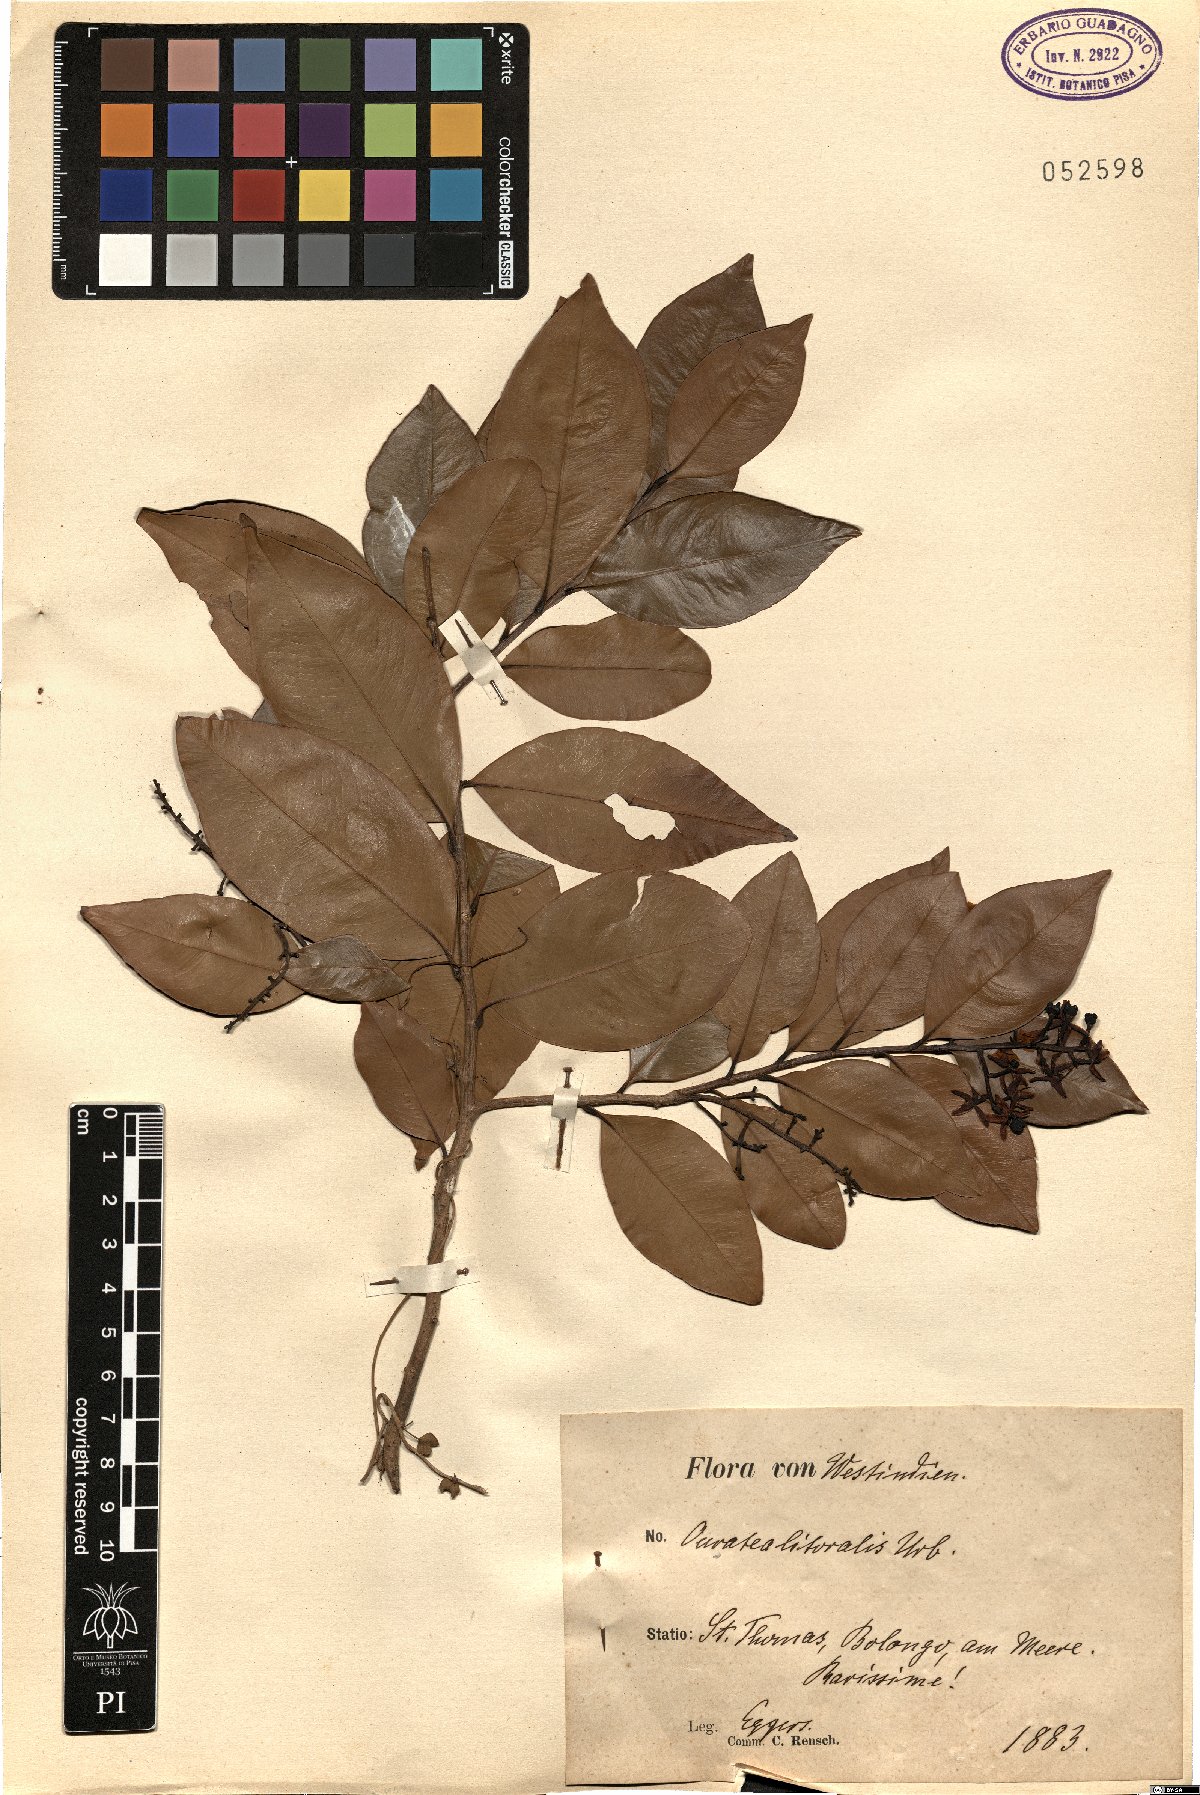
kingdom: Plantae
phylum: Tracheophyta
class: Magnoliopsida
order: Malpighiales
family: Ochnaceae
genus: Ouratea
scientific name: Ouratea litoralis
